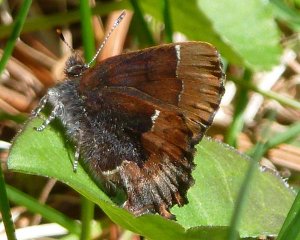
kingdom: Animalia
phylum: Arthropoda
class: Insecta
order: Lepidoptera
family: Lycaenidae
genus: Incisalia
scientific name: Incisalia henrici
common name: Henry's Elfin
